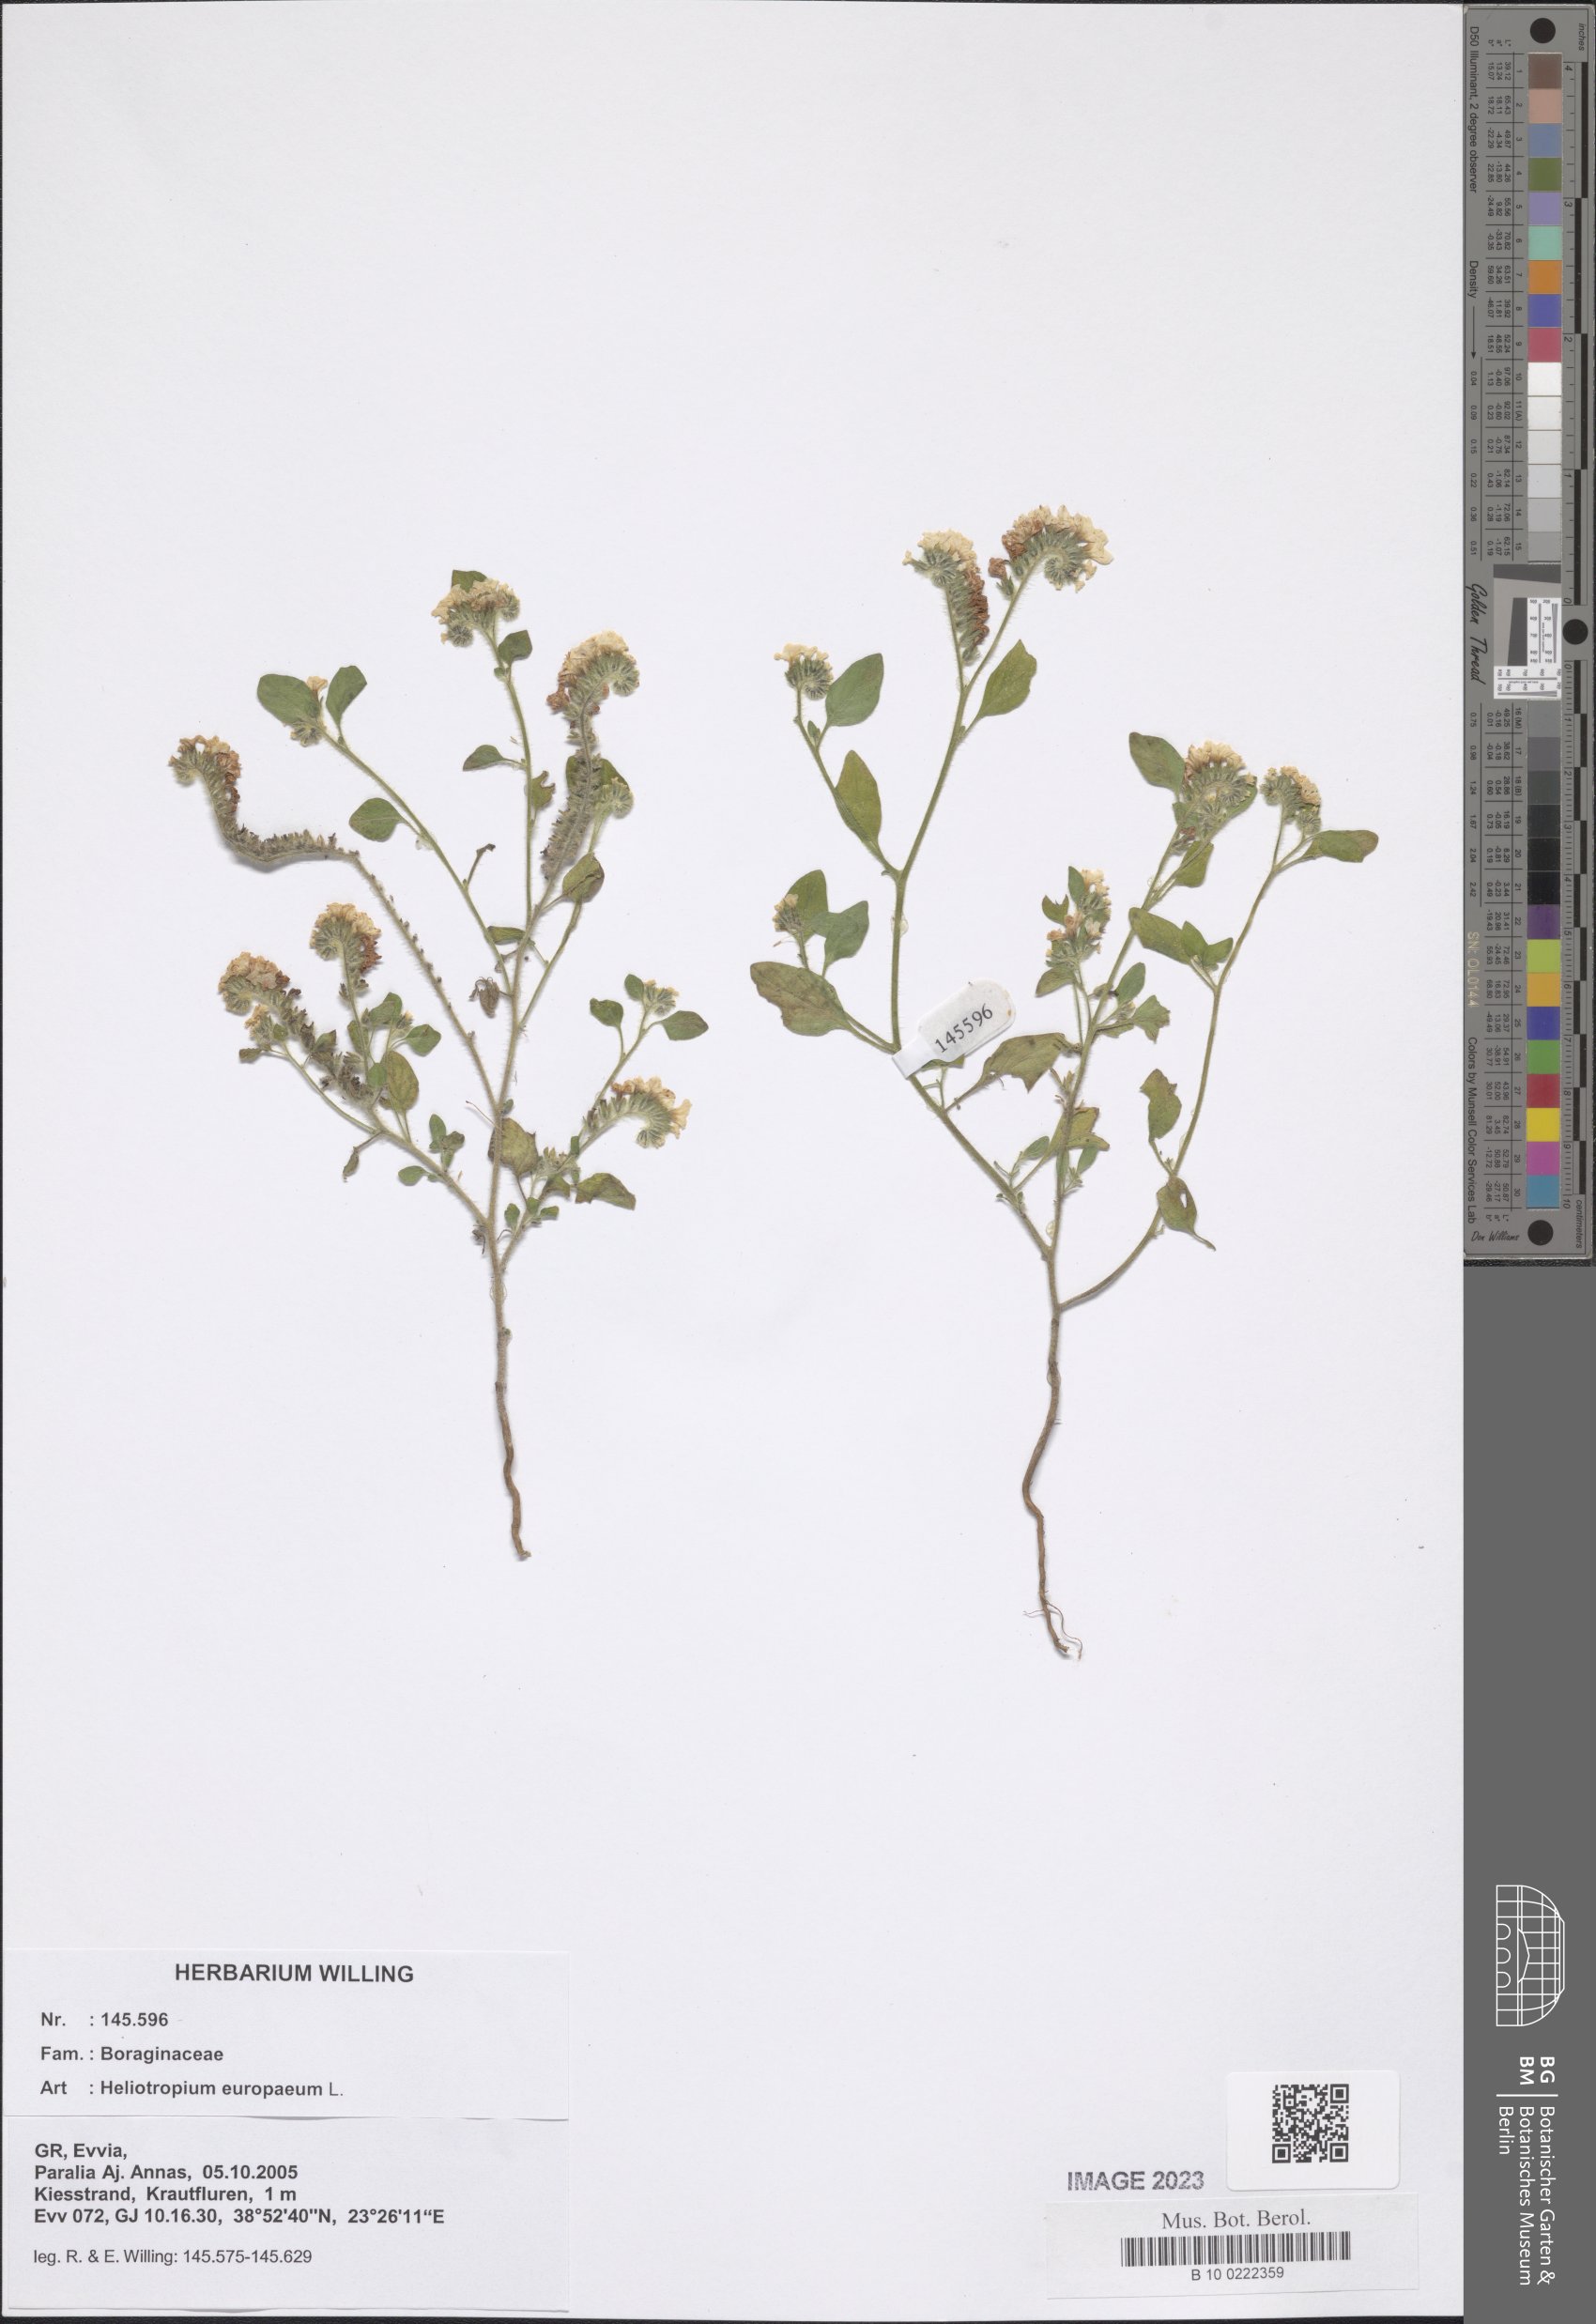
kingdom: Plantae
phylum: Tracheophyta
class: Magnoliopsida
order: Boraginales
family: Heliotropiaceae
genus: Heliotropium
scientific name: Heliotropium europaeum
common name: European heliotrope
